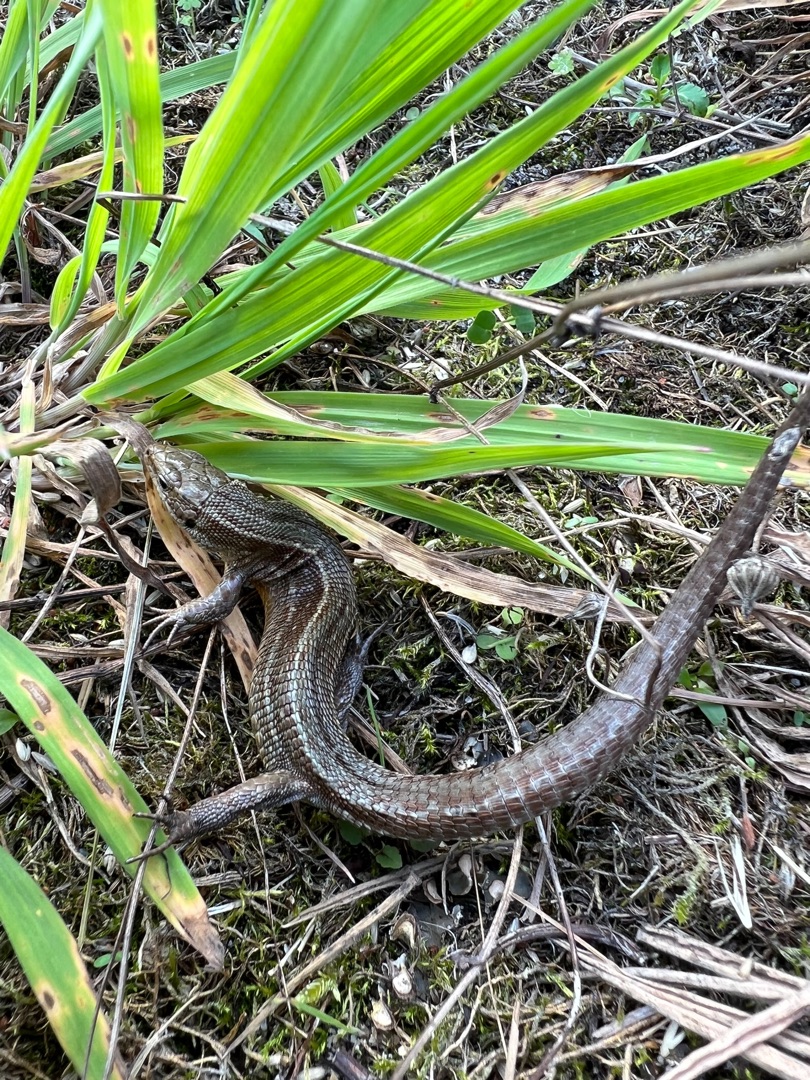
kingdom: Animalia
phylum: Chordata
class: Squamata
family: Lacertidae
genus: Zootoca
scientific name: Zootoca vivipara
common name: Skovfirben
